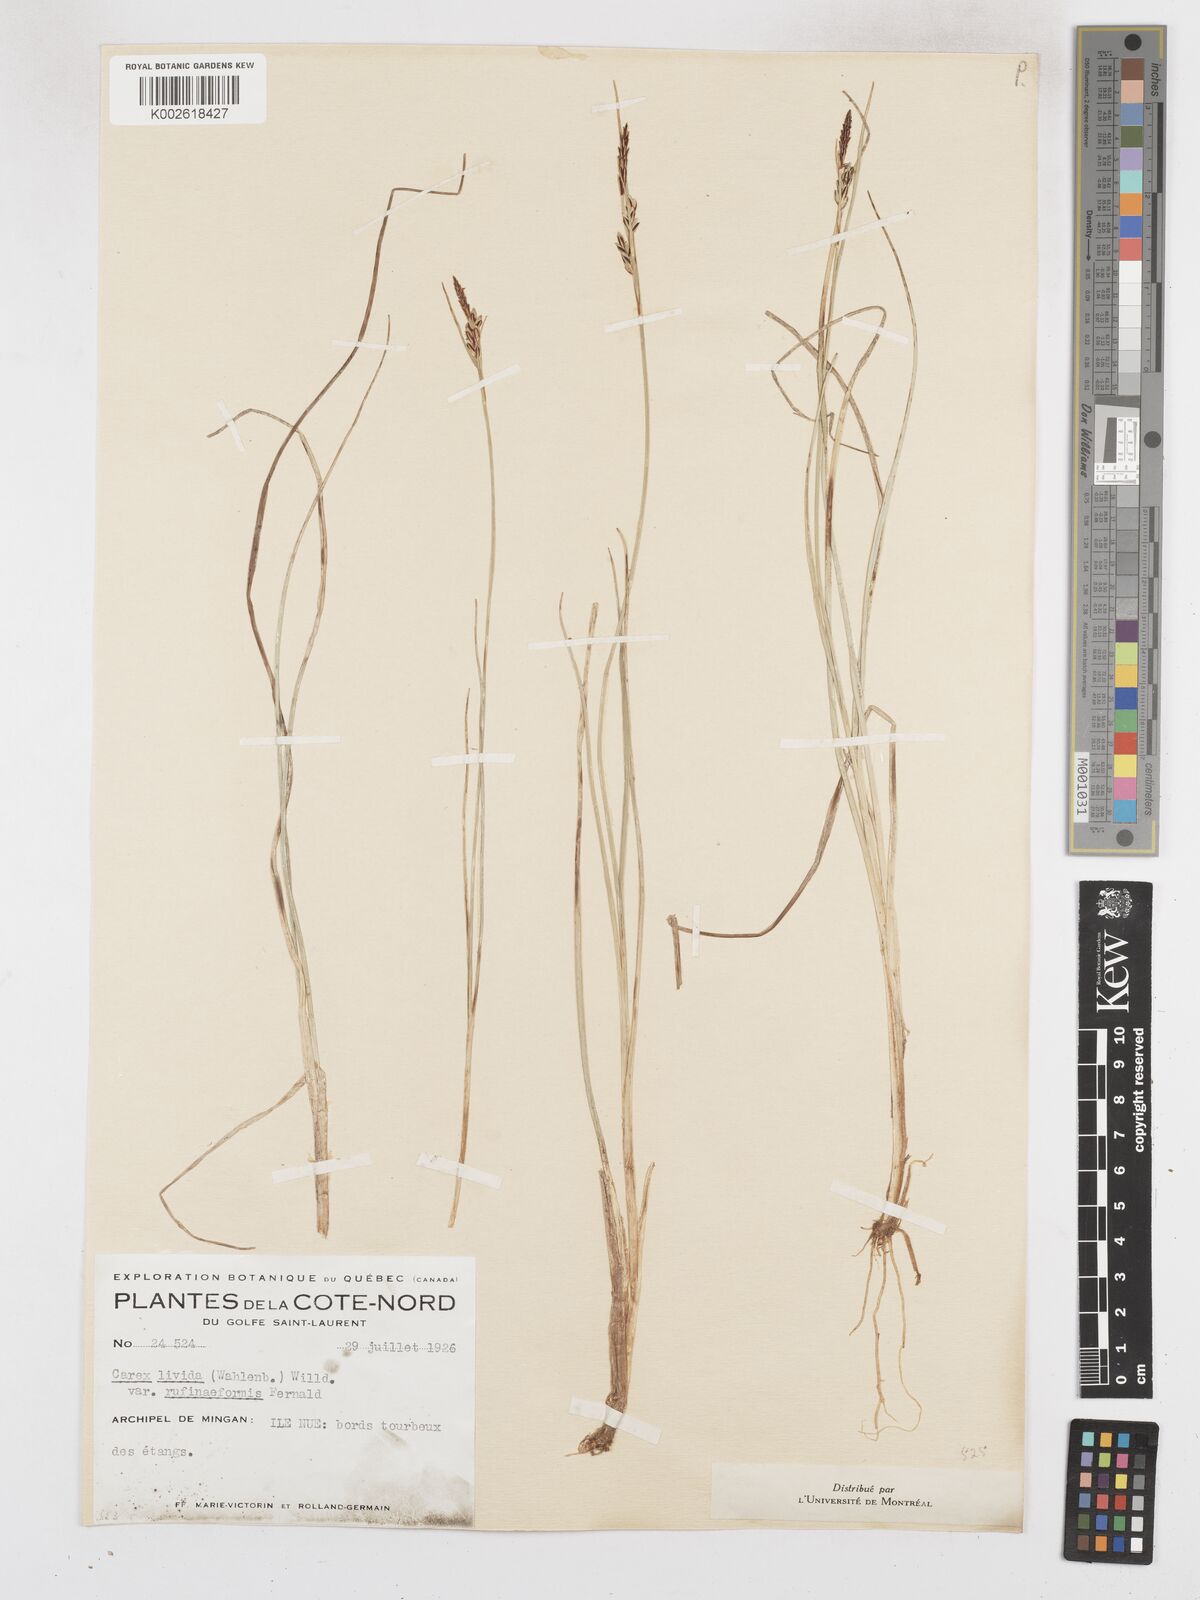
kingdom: Plantae
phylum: Tracheophyta
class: Liliopsida
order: Poales
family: Cyperaceae
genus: Carex
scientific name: Carex livida
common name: Livid sedge
